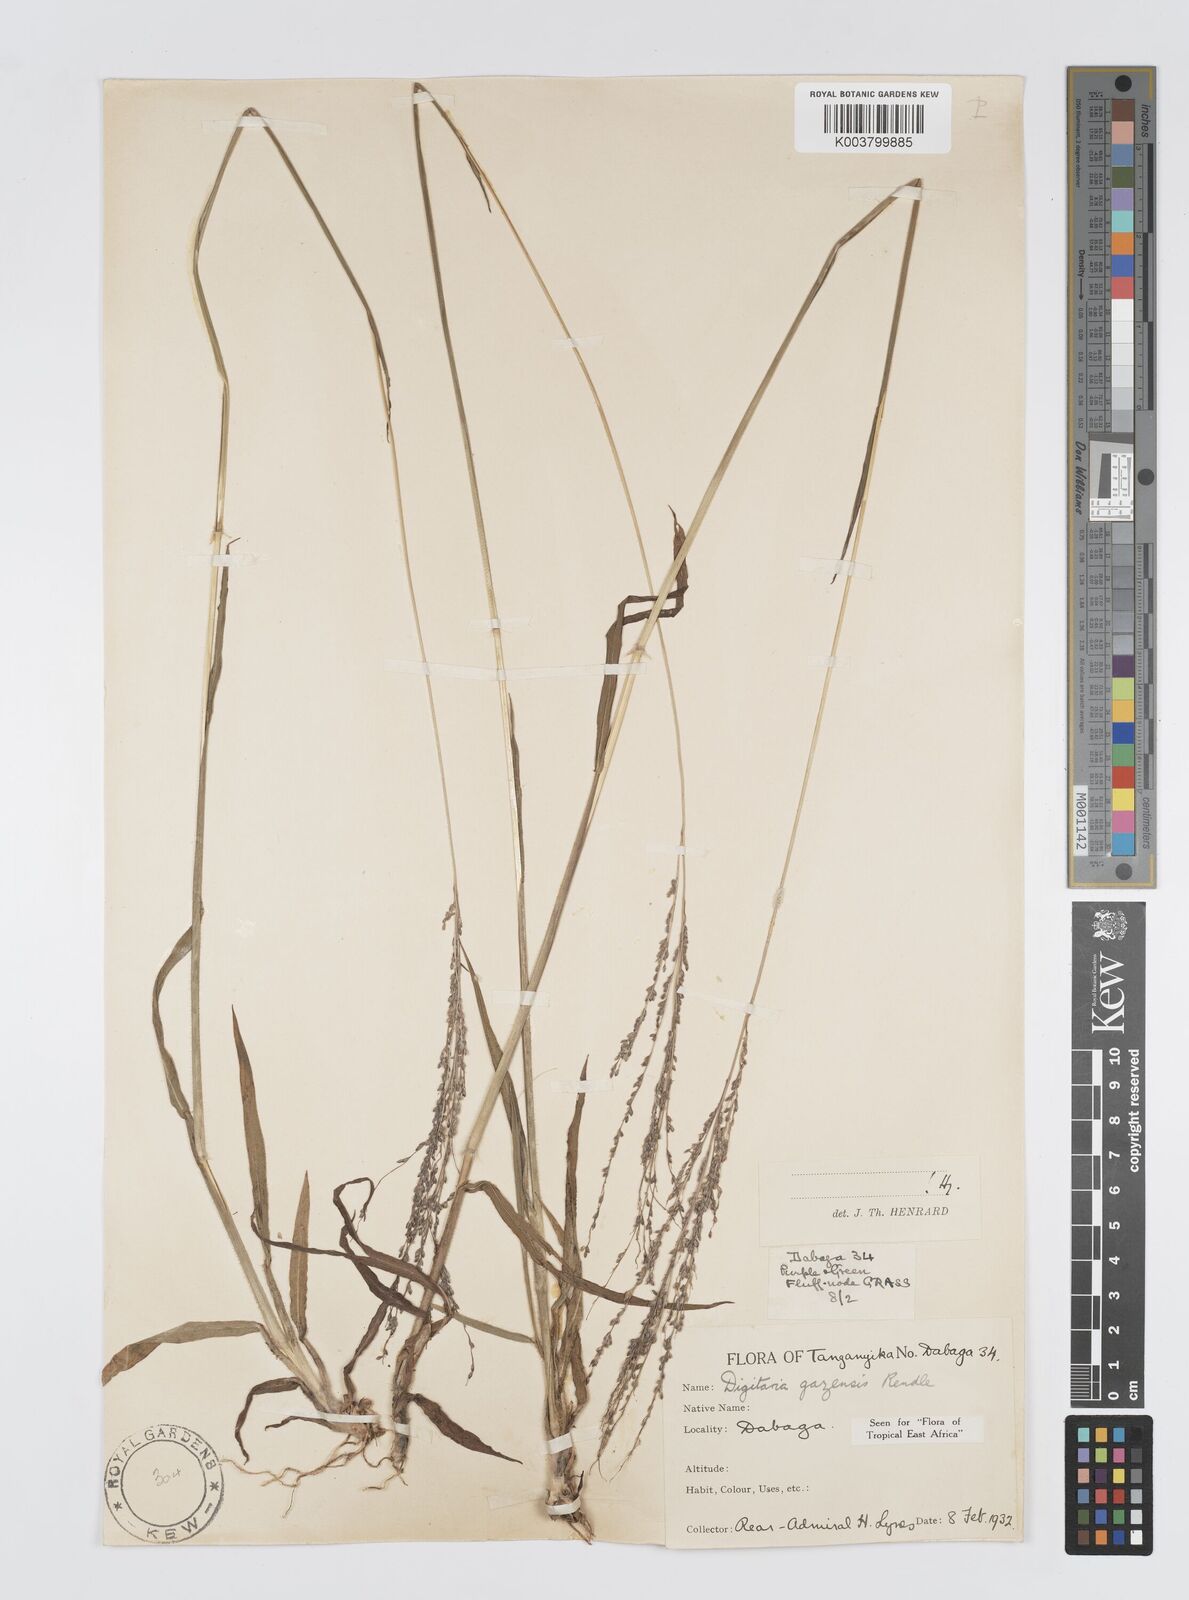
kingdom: Plantae
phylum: Tracheophyta
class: Liliopsida
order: Poales
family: Poaceae
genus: Digitaria
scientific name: Digitaria gazensis
